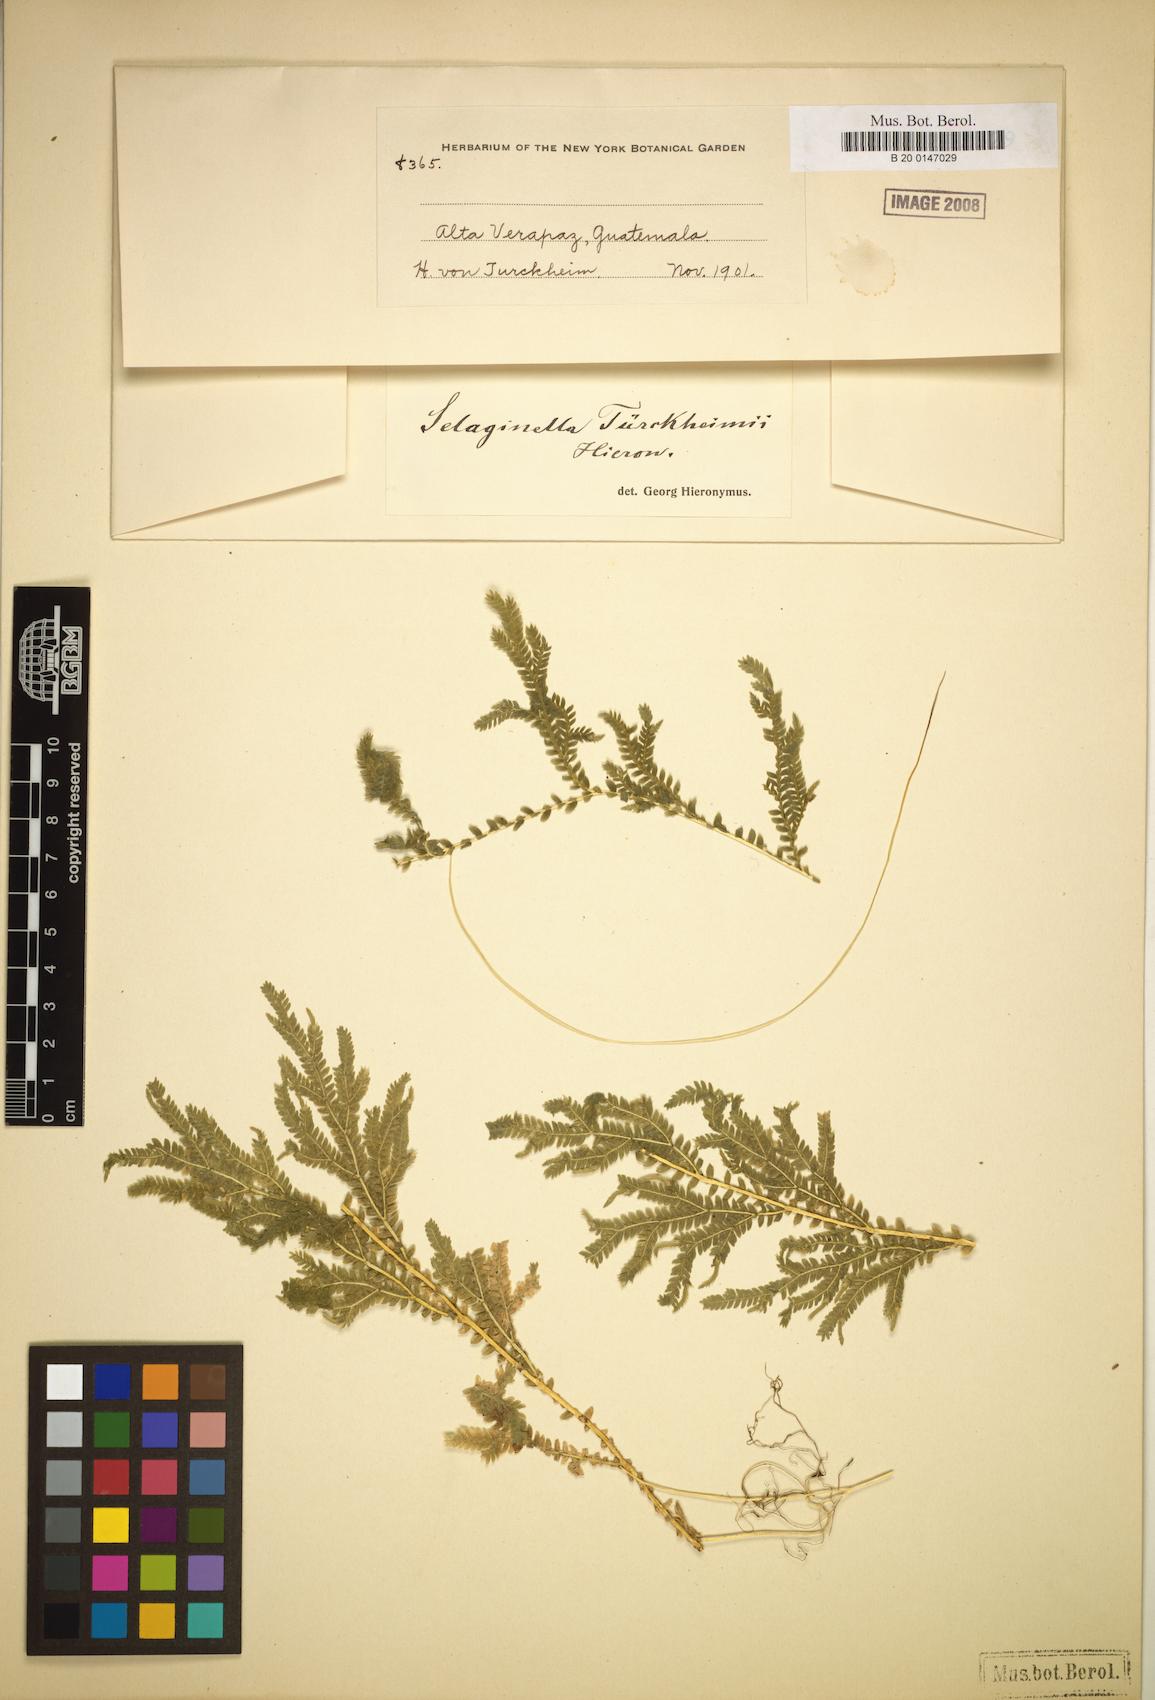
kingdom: Plantae
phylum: Tracheophyta
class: Lycopodiopsida
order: Selaginellales
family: Selaginellaceae
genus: Selaginella
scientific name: Selaginella sertata
